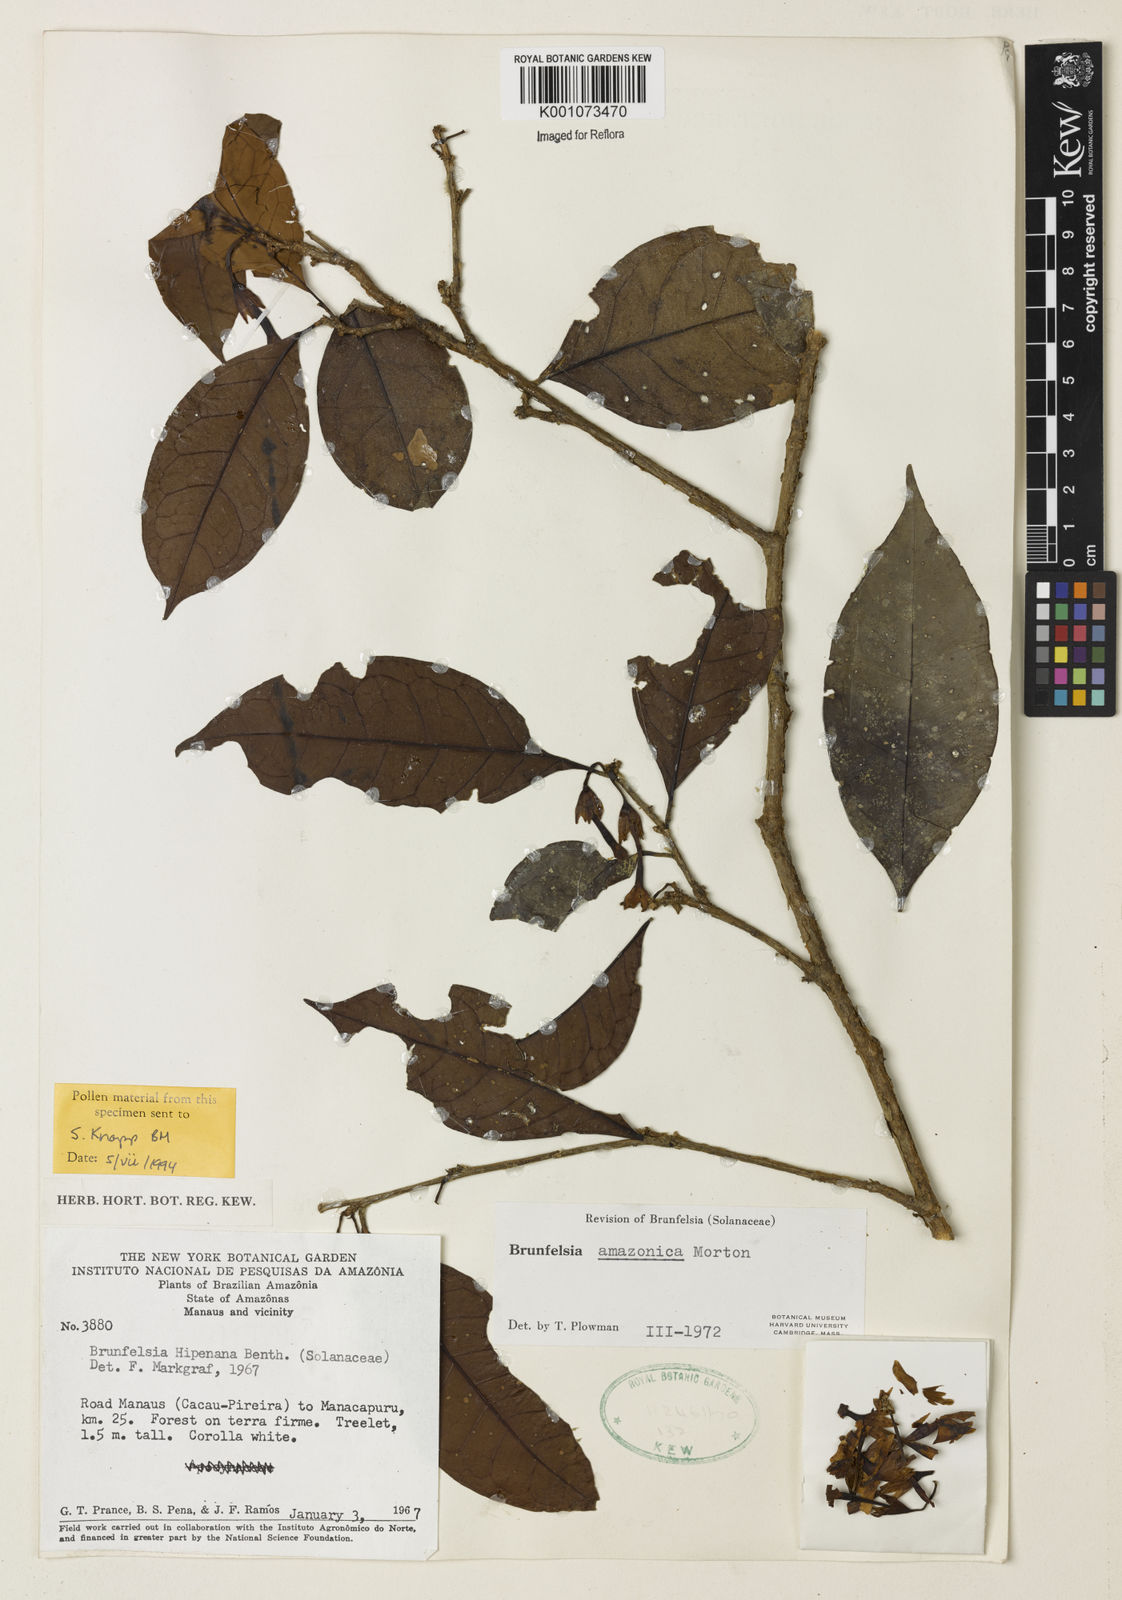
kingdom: Plantae
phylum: Tracheophyta
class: Magnoliopsida
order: Solanales
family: Solanaceae
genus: Brunfelsia
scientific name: Brunfelsia amazonica
